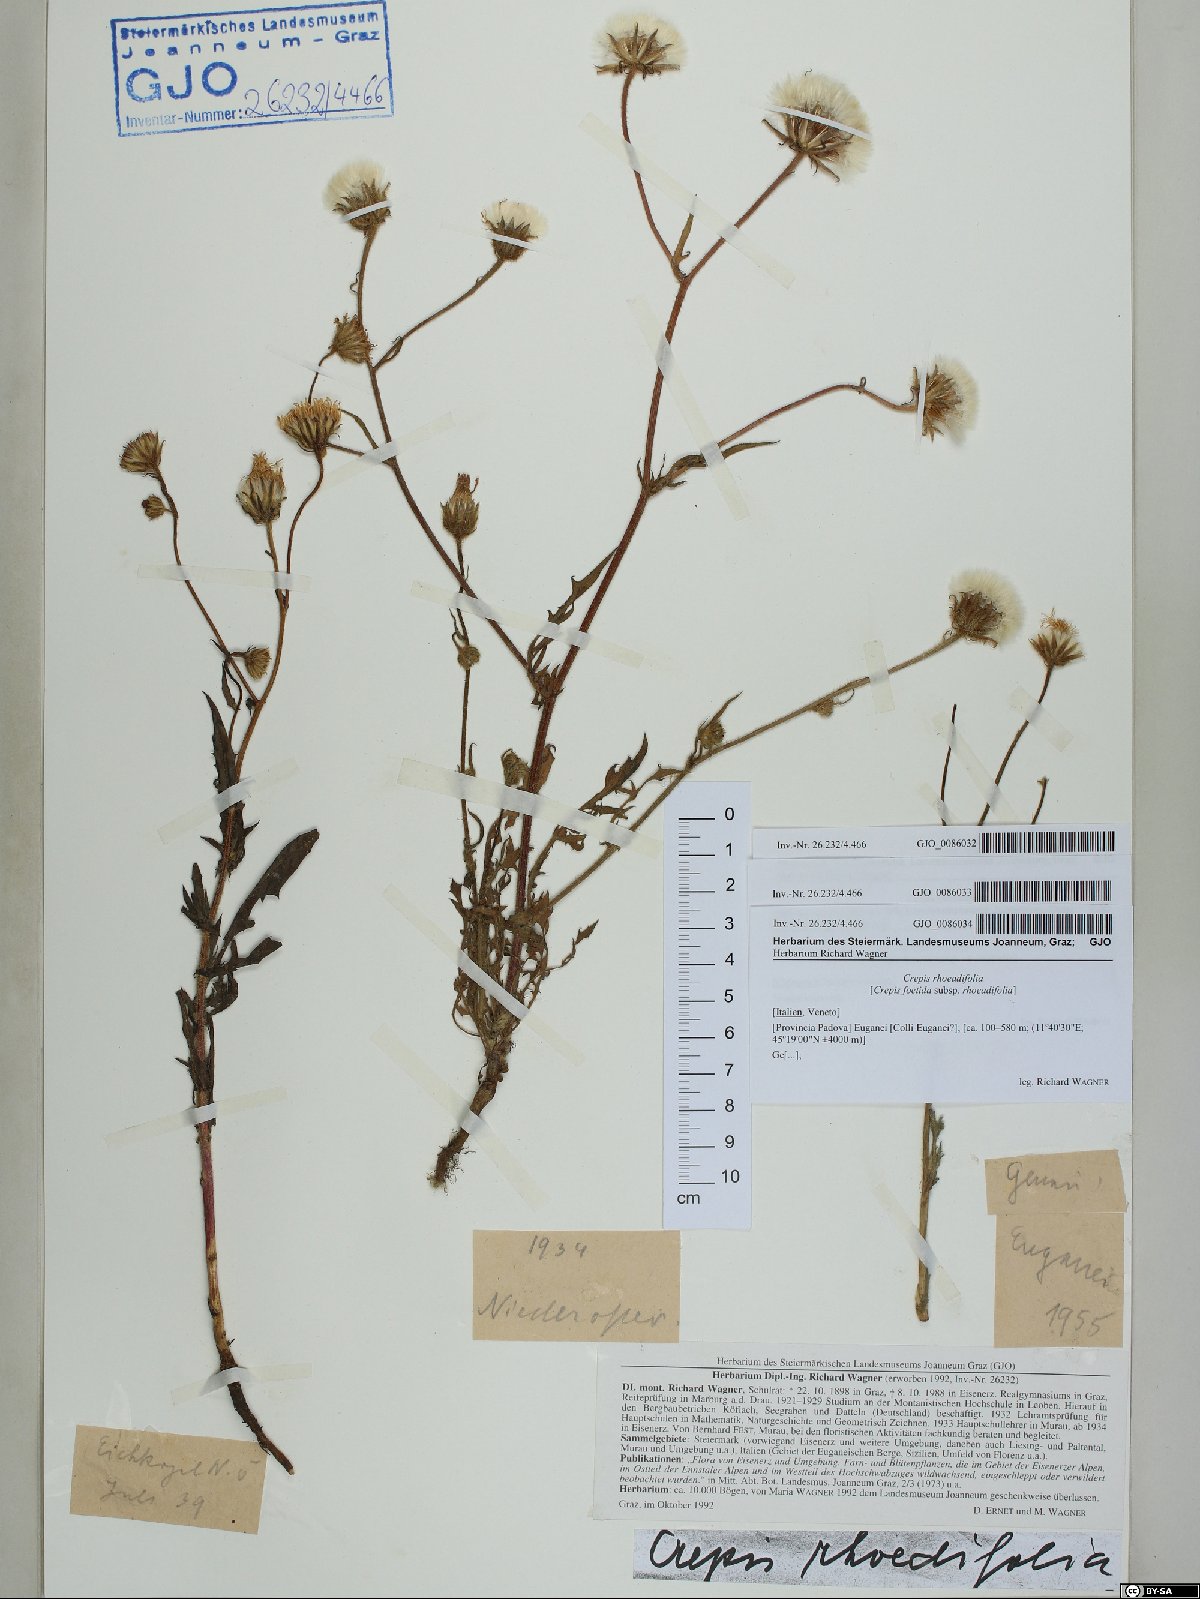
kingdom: Plantae
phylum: Tracheophyta
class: Magnoliopsida
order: Asterales
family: Asteraceae
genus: Crepis
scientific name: Crepis foetida
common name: Stinking hawk's-beard
